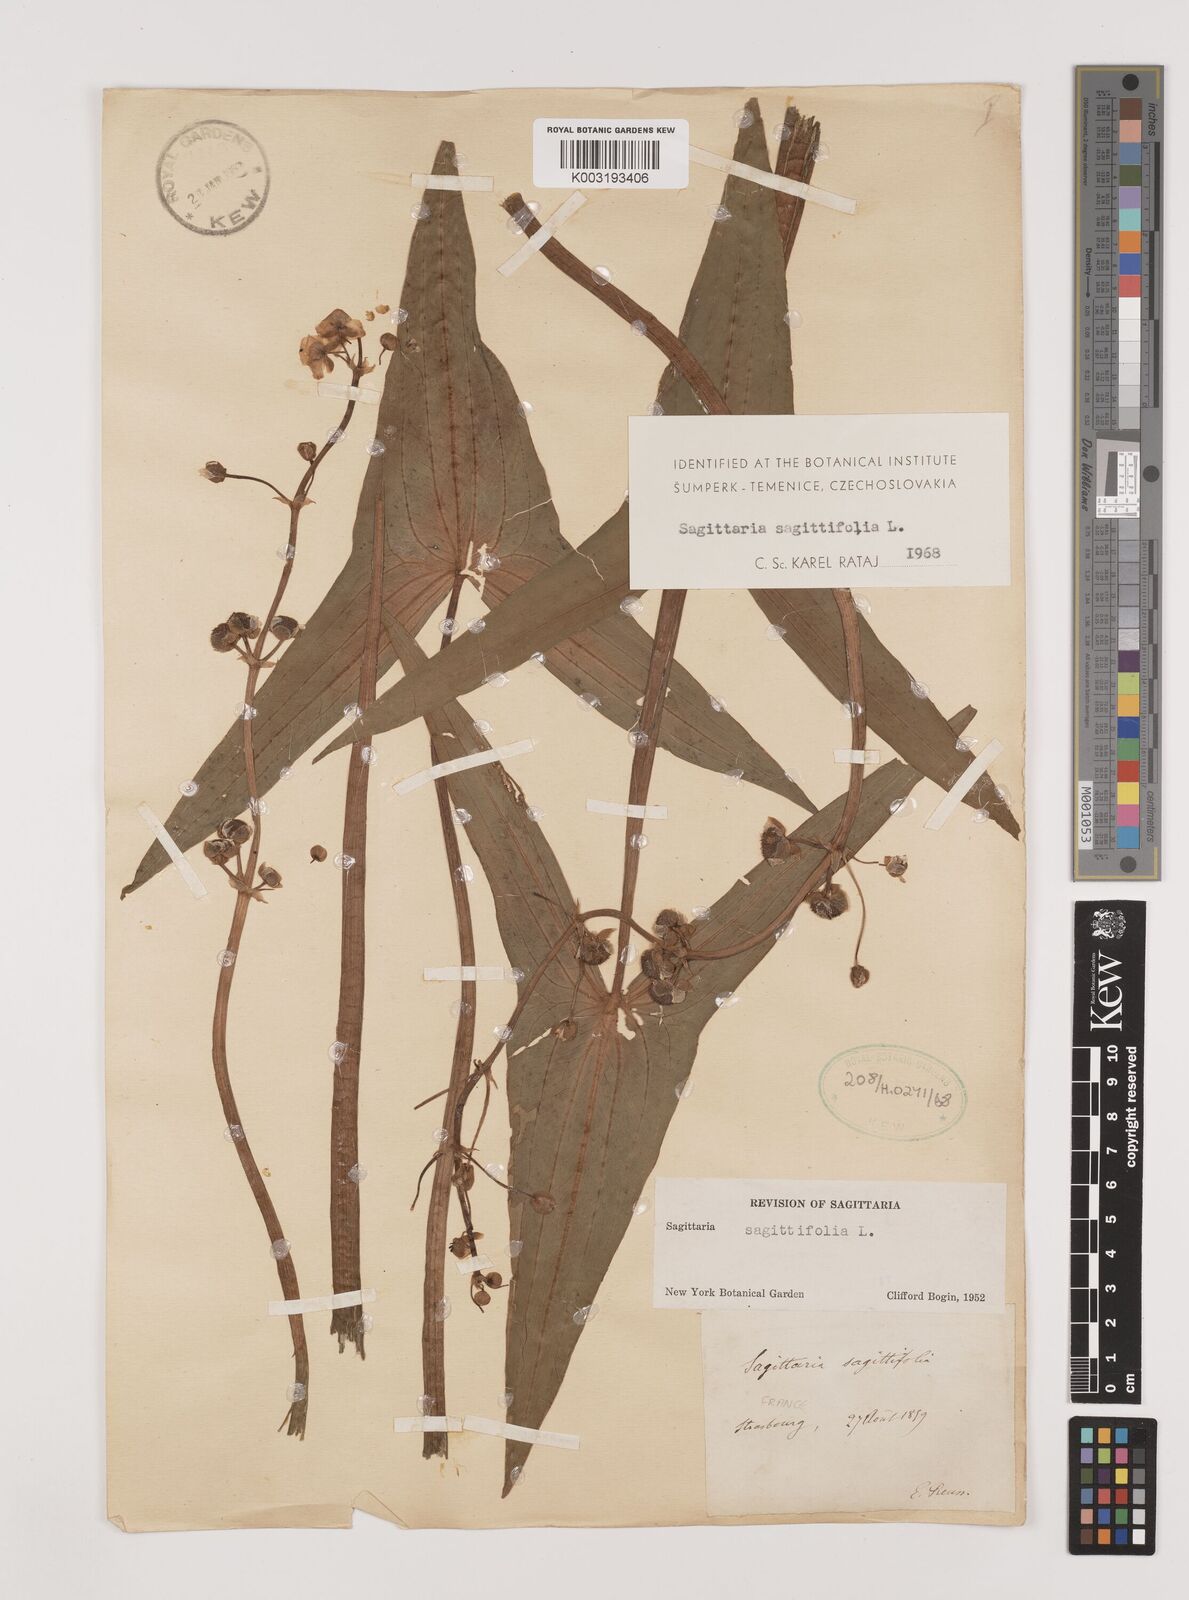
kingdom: Plantae
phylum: Tracheophyta
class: Liliopsida
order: Alismatales
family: Alismataceae
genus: Sagittaria
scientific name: Sagittaria sagittifolia
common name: Arrowhead
